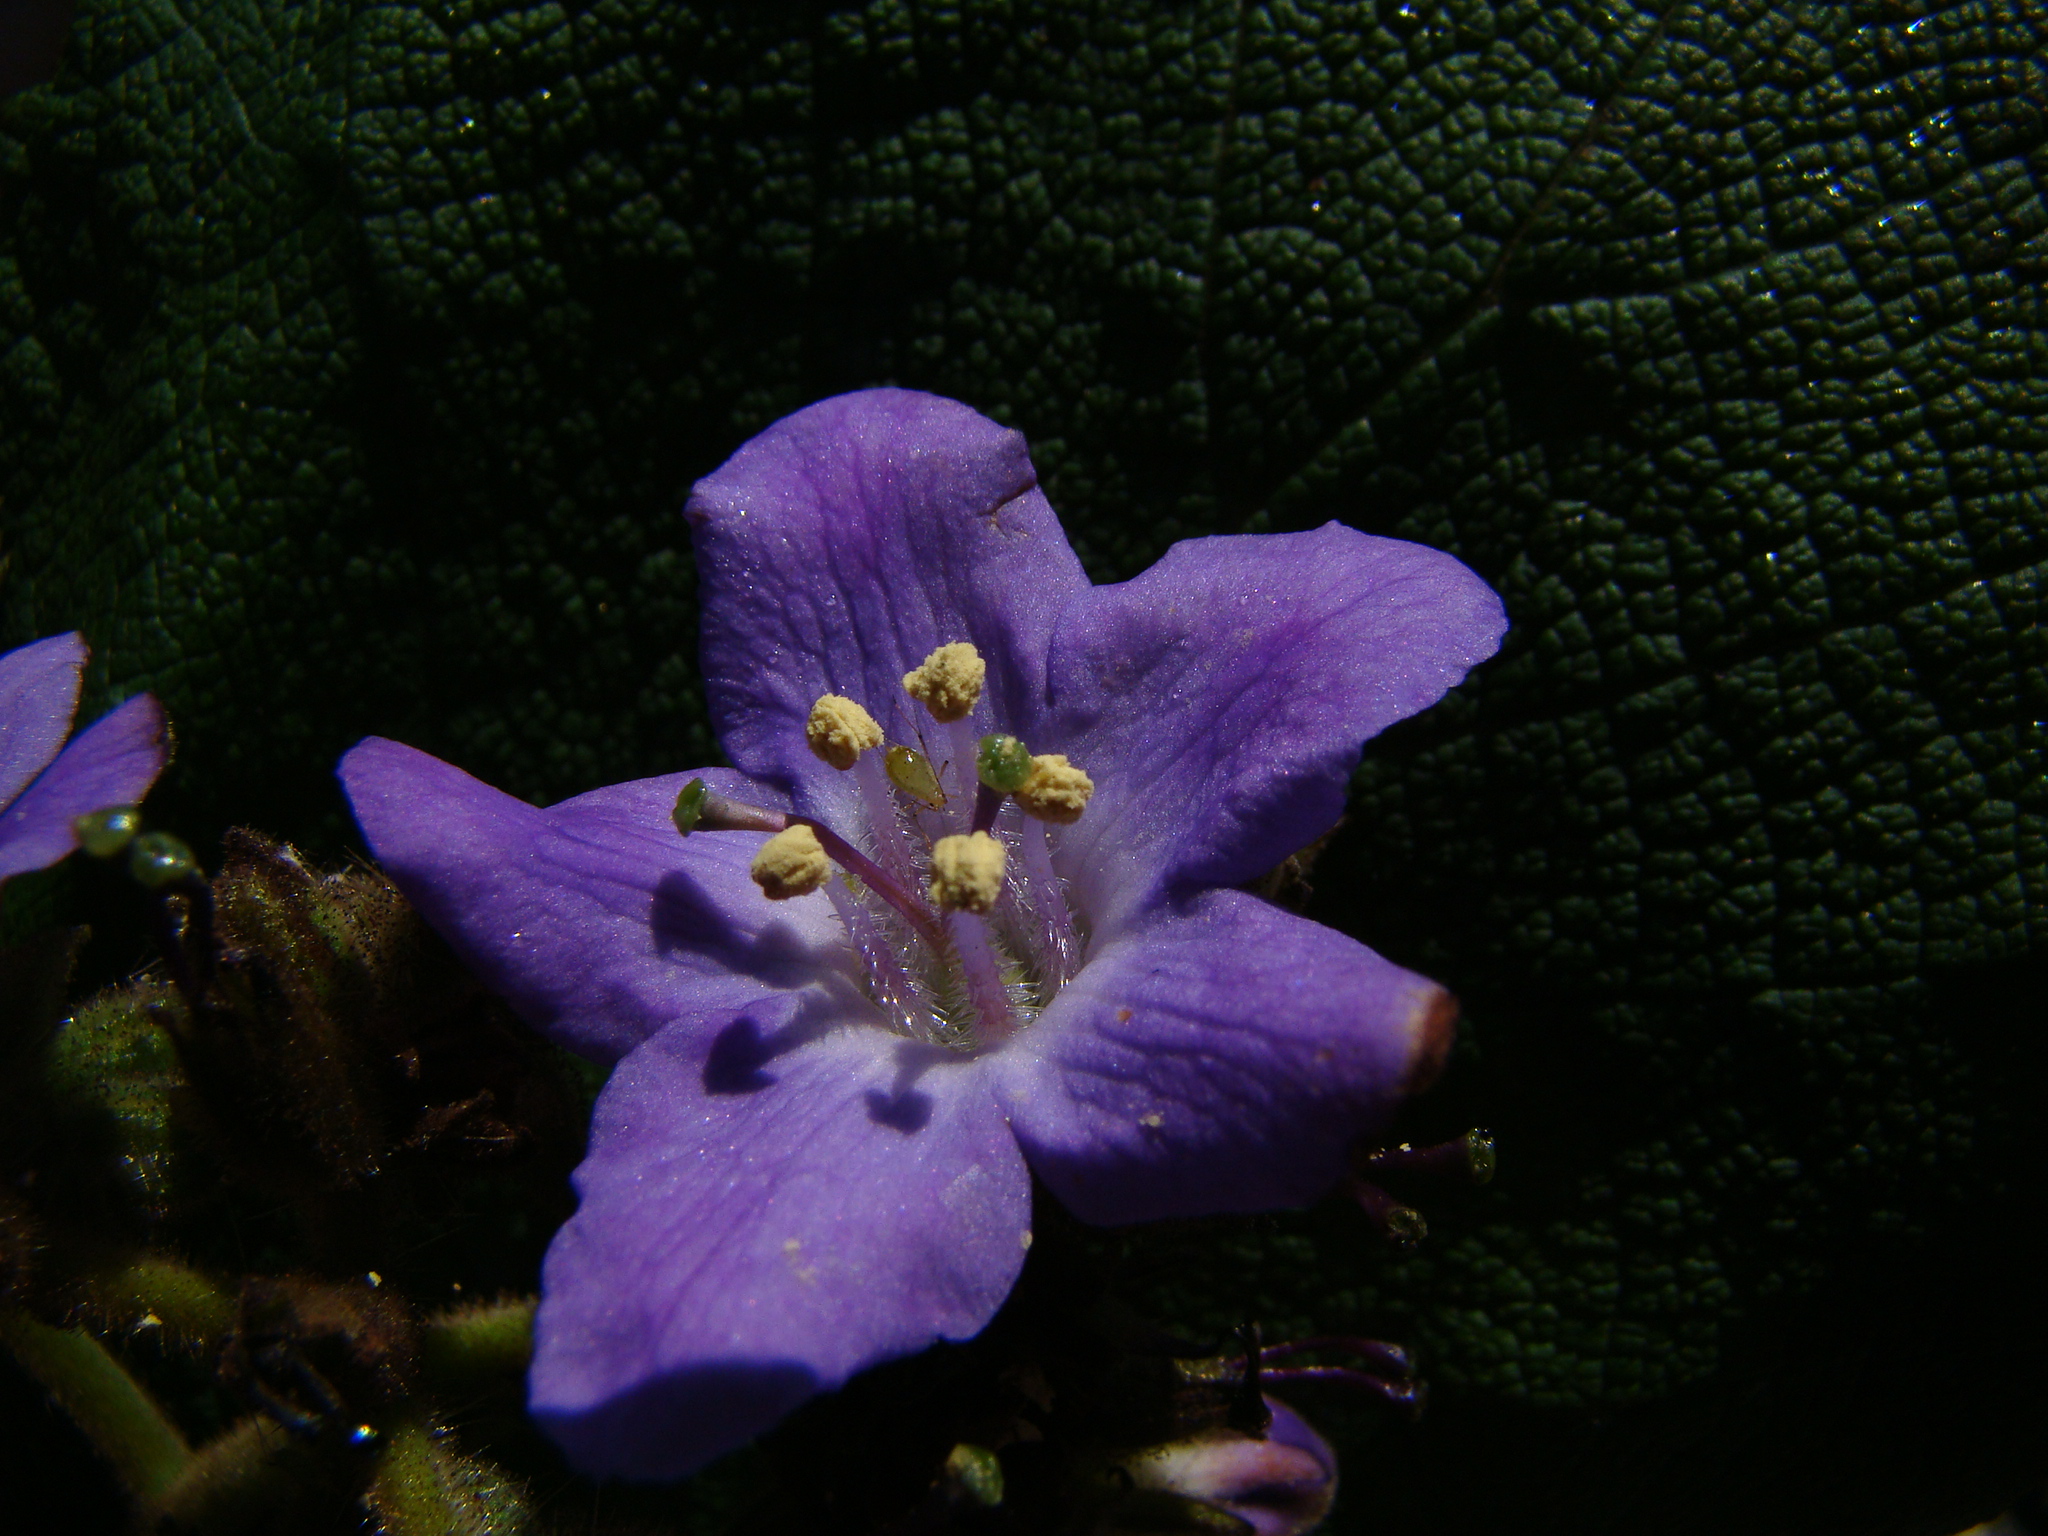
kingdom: Plantae
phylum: Tracheophyta
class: Magnoliopsida
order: Boraginales
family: Namaceae
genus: Wigandia
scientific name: Wigandia urens
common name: Caracus wigandia
